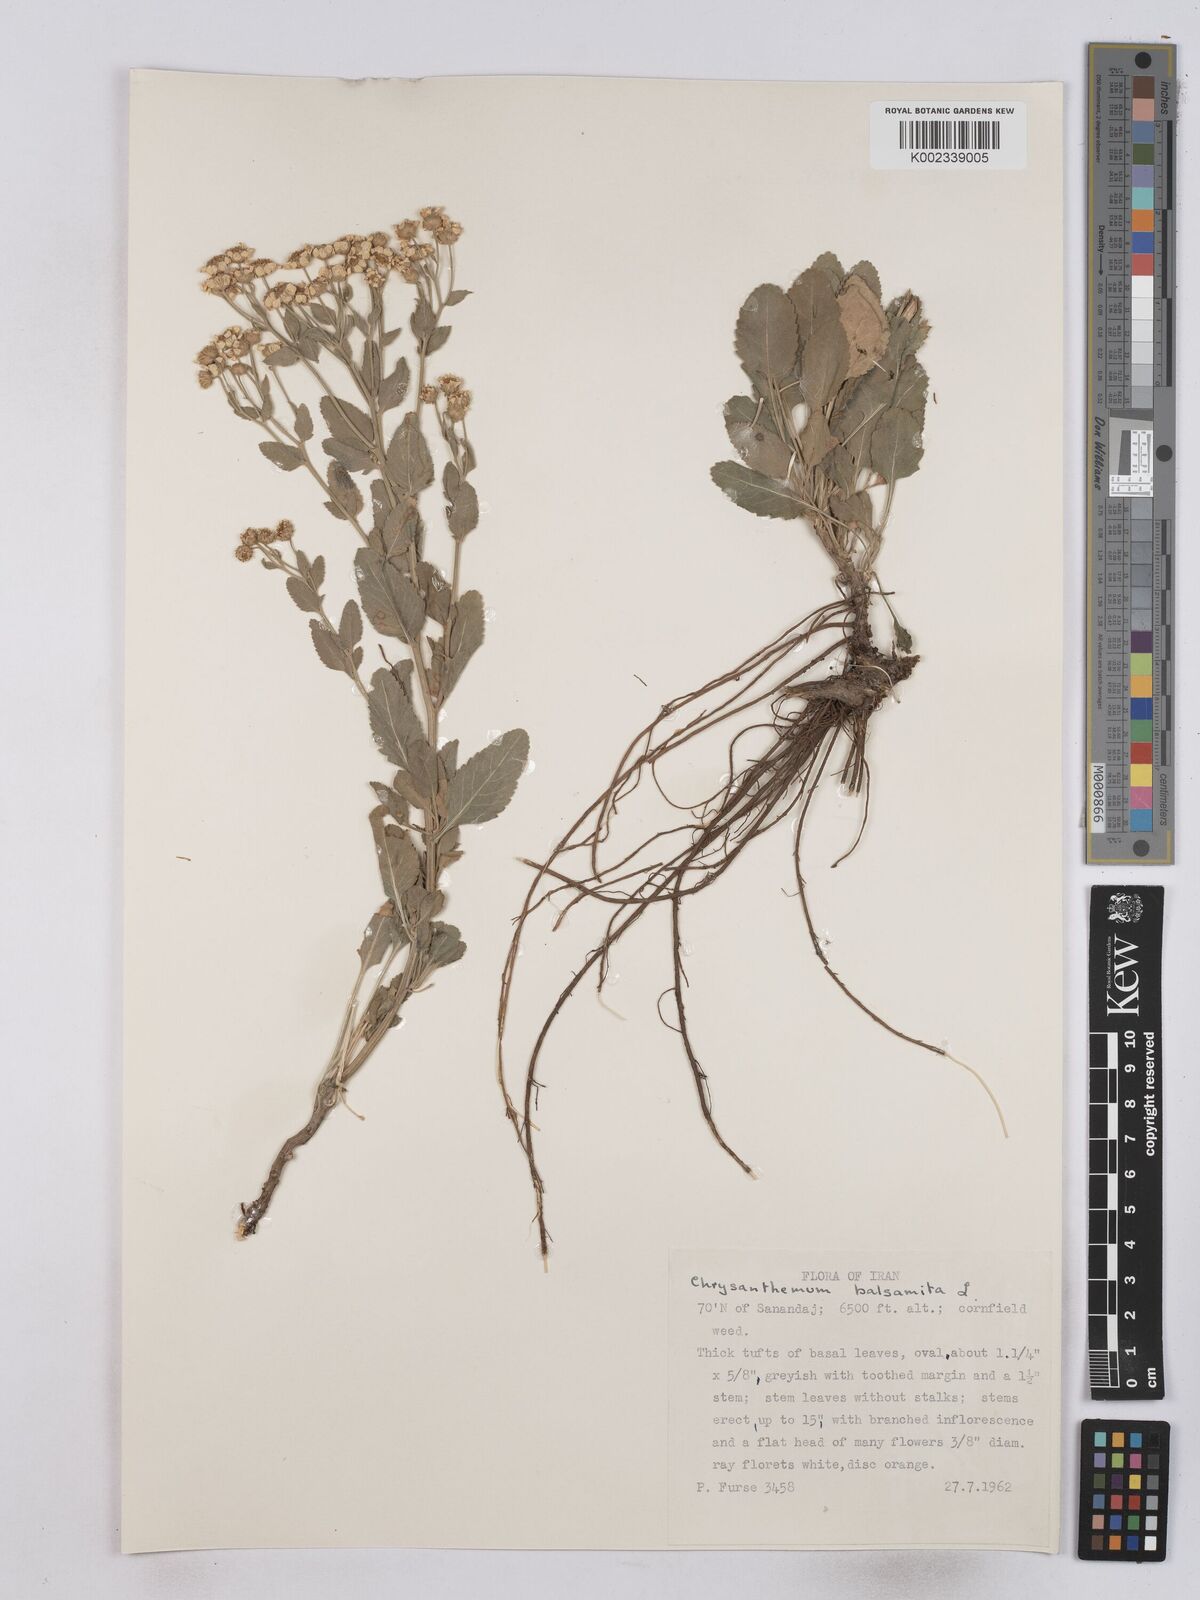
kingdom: Plantae
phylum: Tracheophyta
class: Magnoliopsida
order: Asterales
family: Asteraceae
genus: Tanacetum
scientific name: Tanacetum balsamita
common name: Costmary
